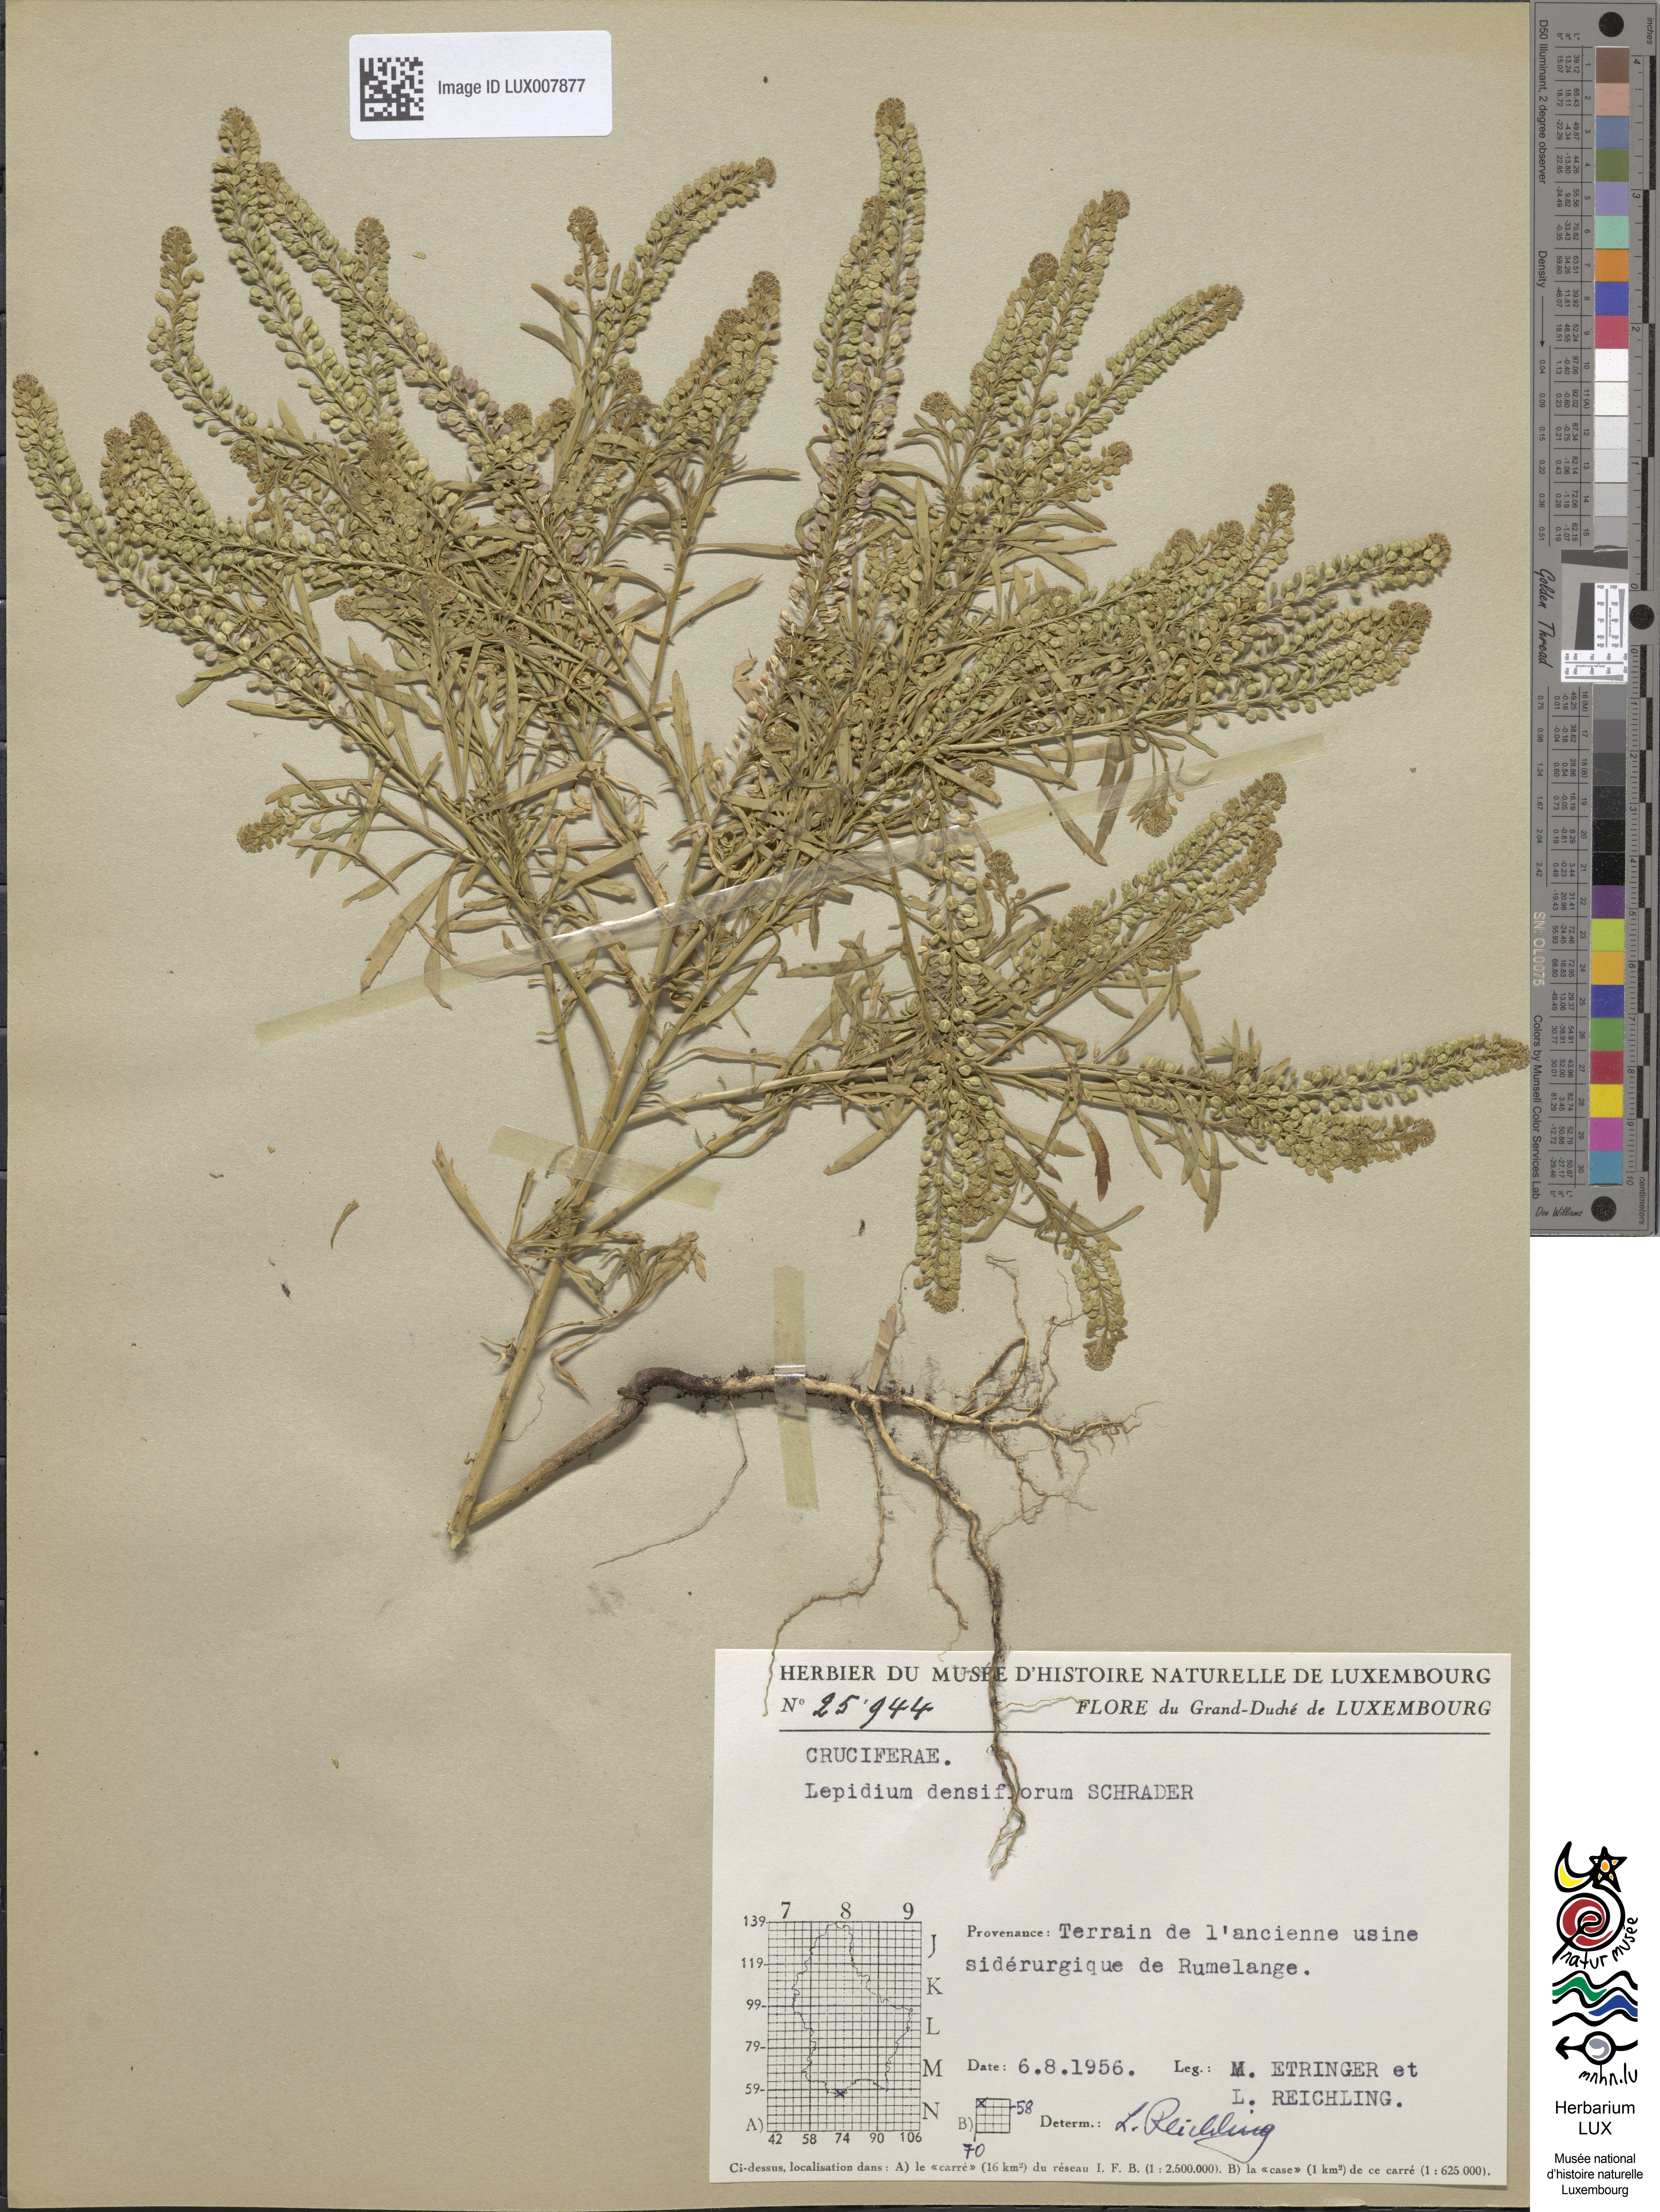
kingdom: Plantae
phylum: Tracheophyta
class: Magnoliopsida
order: Brassicales
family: Brassicaceae
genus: Lepidium
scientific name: Lepidium densiflorum
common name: Miner's pepperwort
